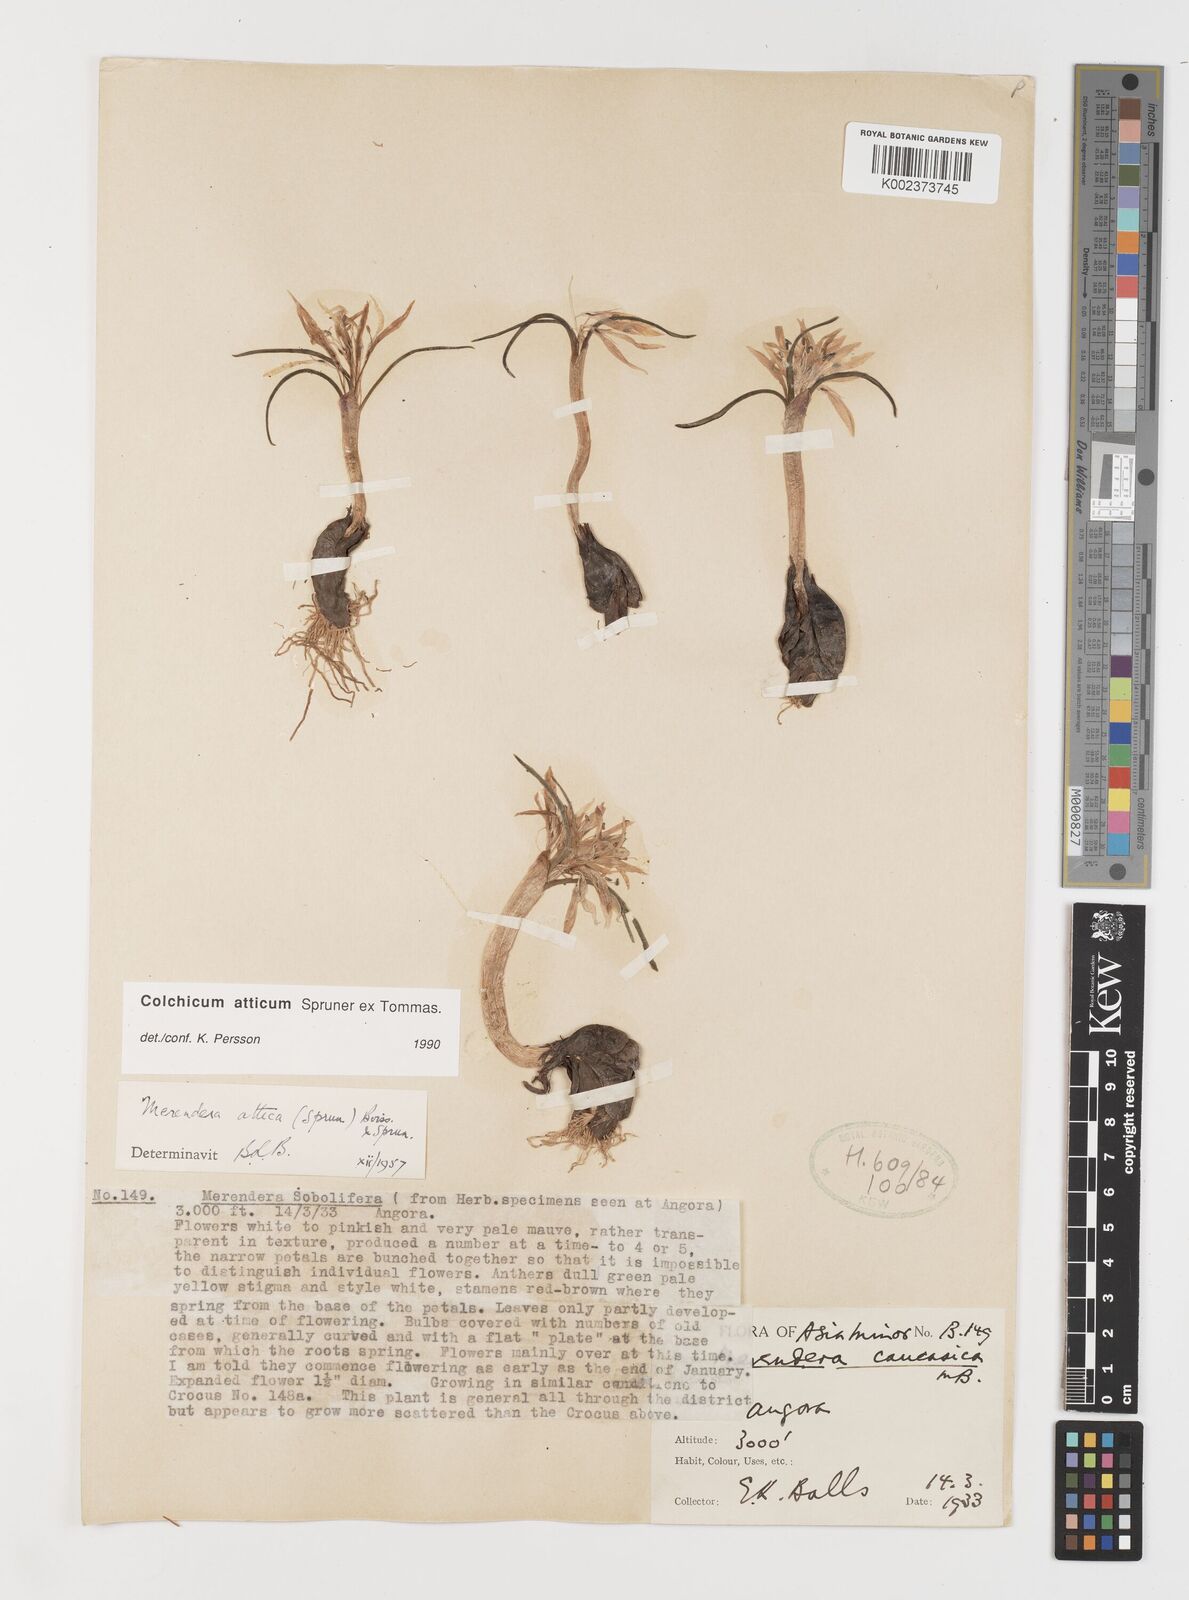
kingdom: Plantae
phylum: Tracheophyta
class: Liliopsida
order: Liliales
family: Colchicaceae
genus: Colchicum
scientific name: Colchicum atticum
